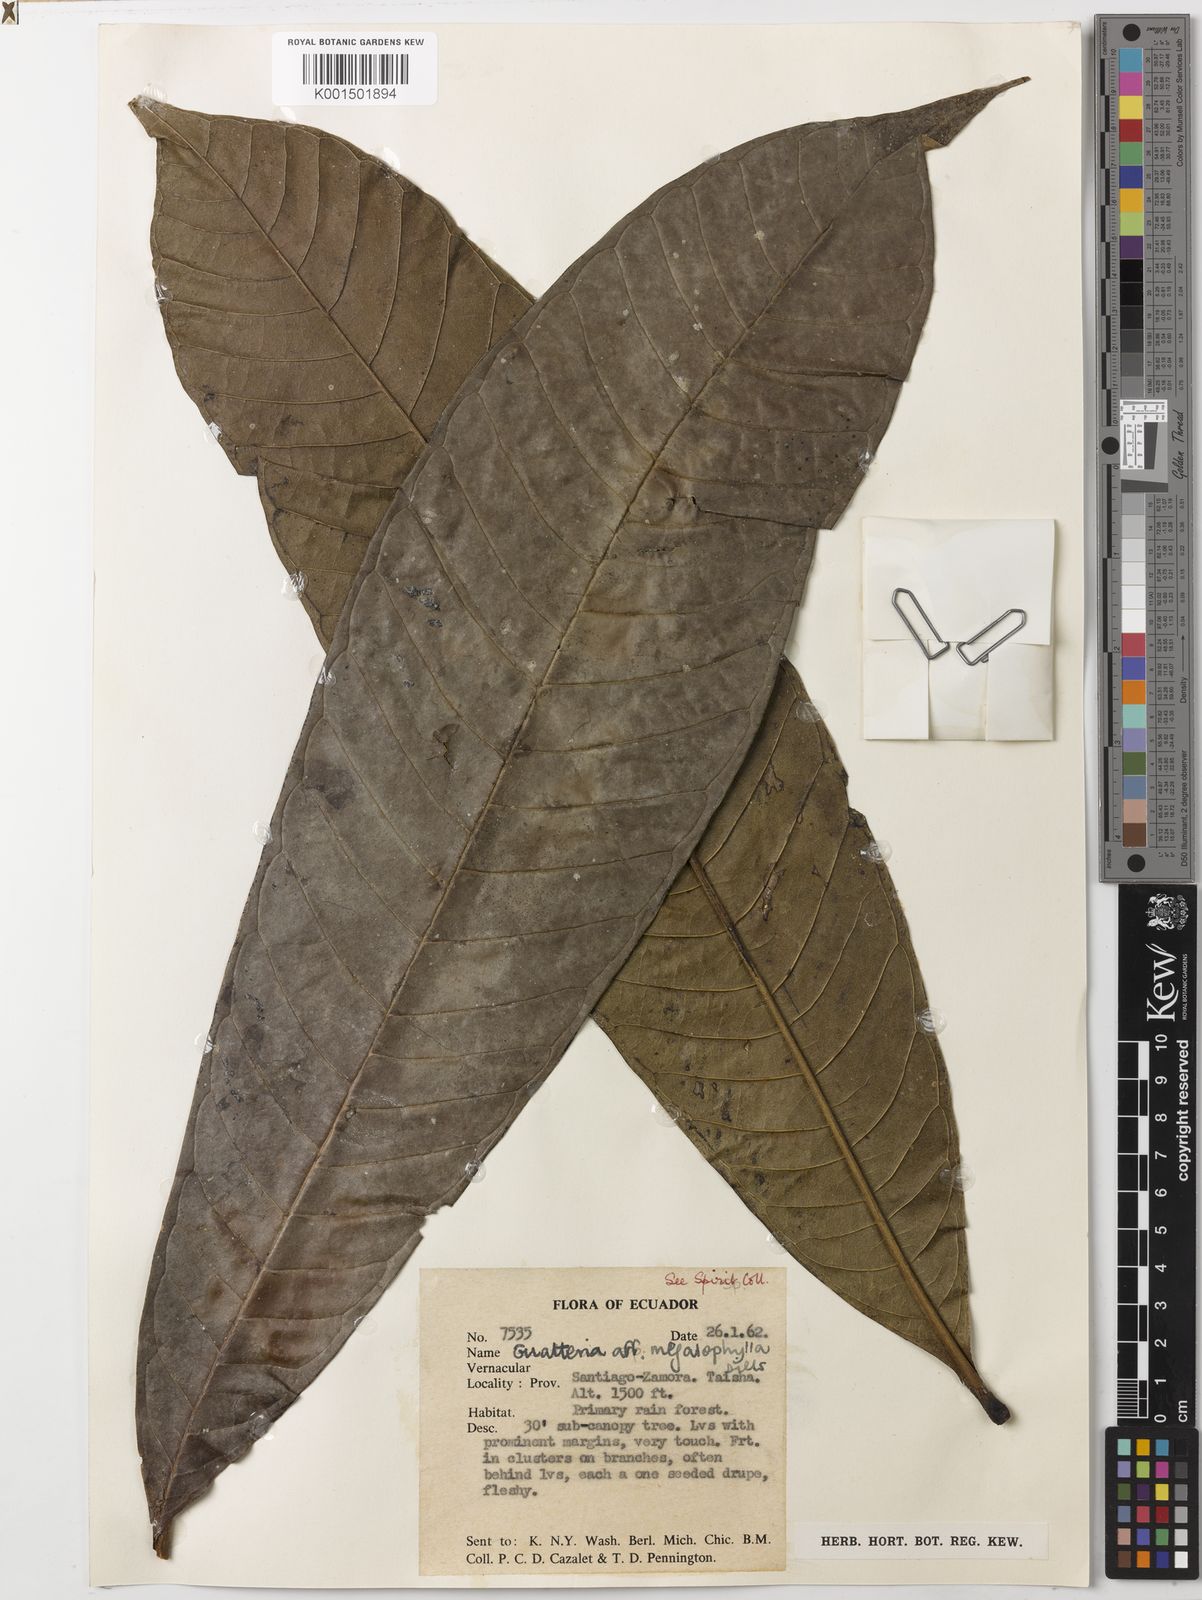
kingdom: Plantae
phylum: Tracheophyta
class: Magnoliopsida
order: Magnoliales
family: Annonaceae
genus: Guatteria
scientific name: Guatteria megalophylla
